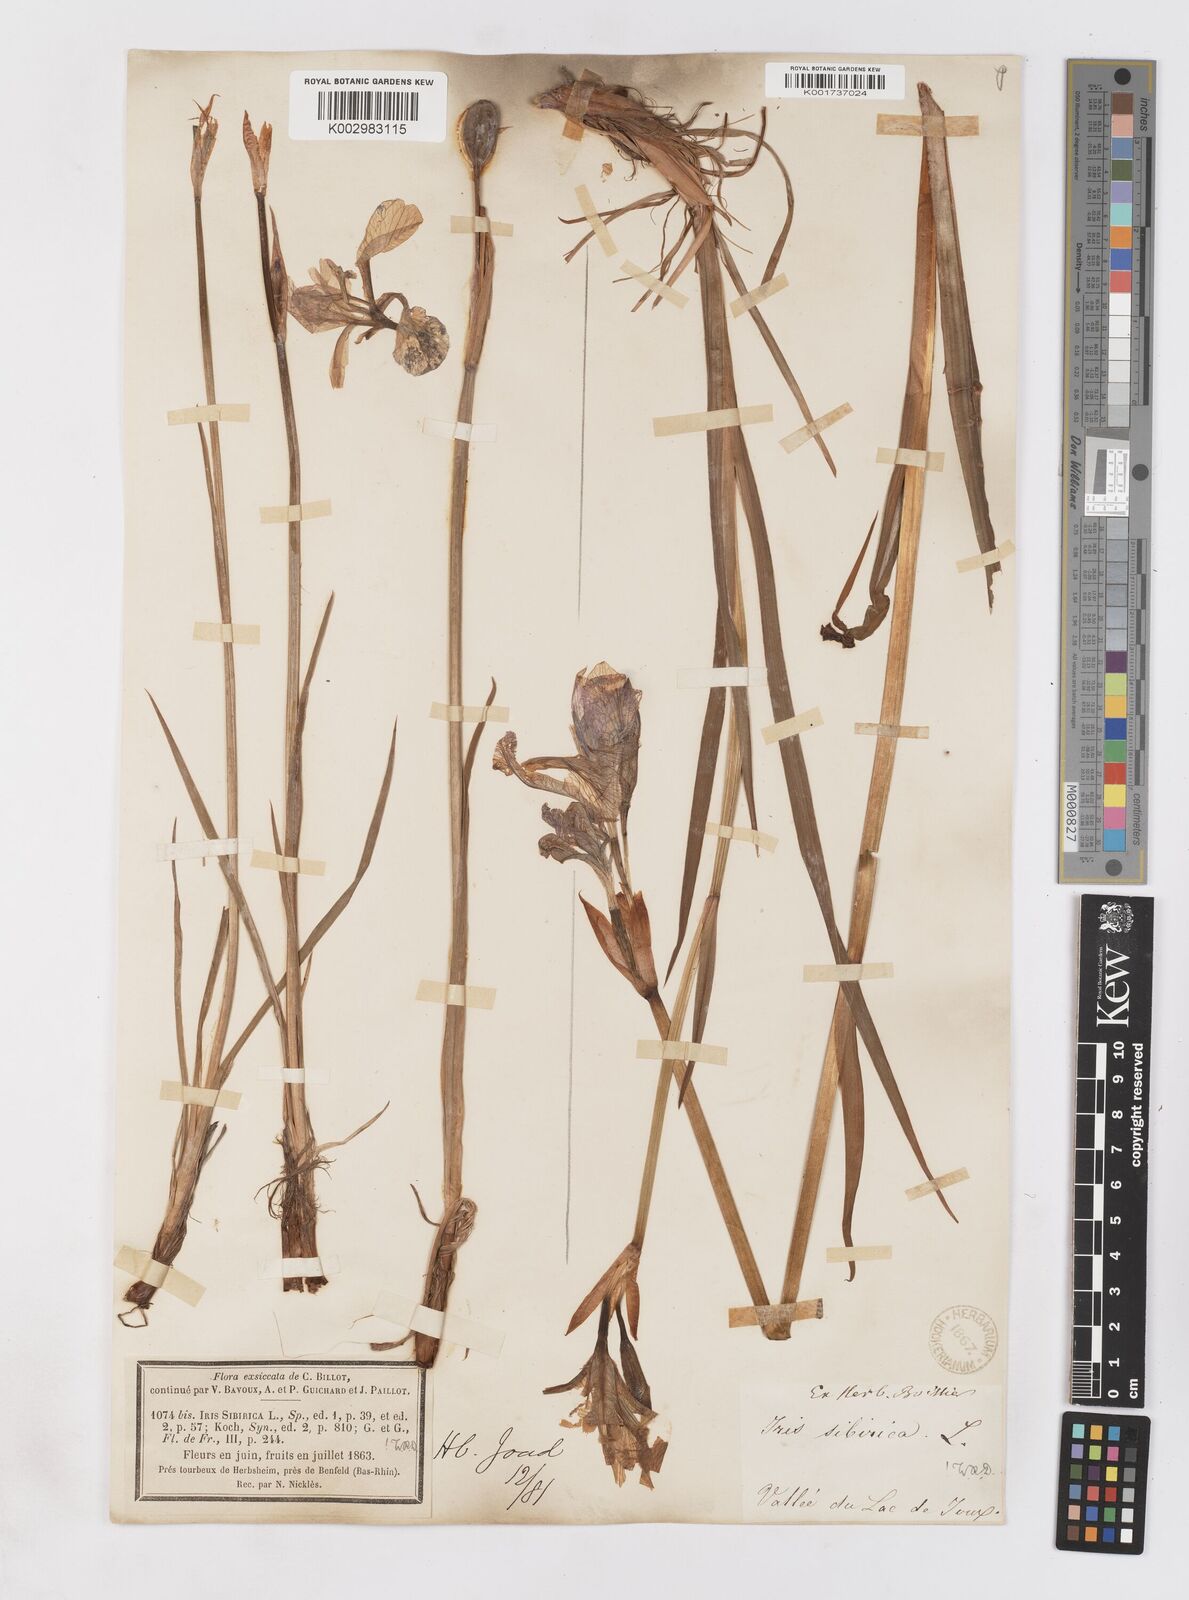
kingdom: Plantae
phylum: Tracheophyta
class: Liliopsida
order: Asparagales
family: Iridaceae
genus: Iris
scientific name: Iris sibirica
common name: Siberian iris
